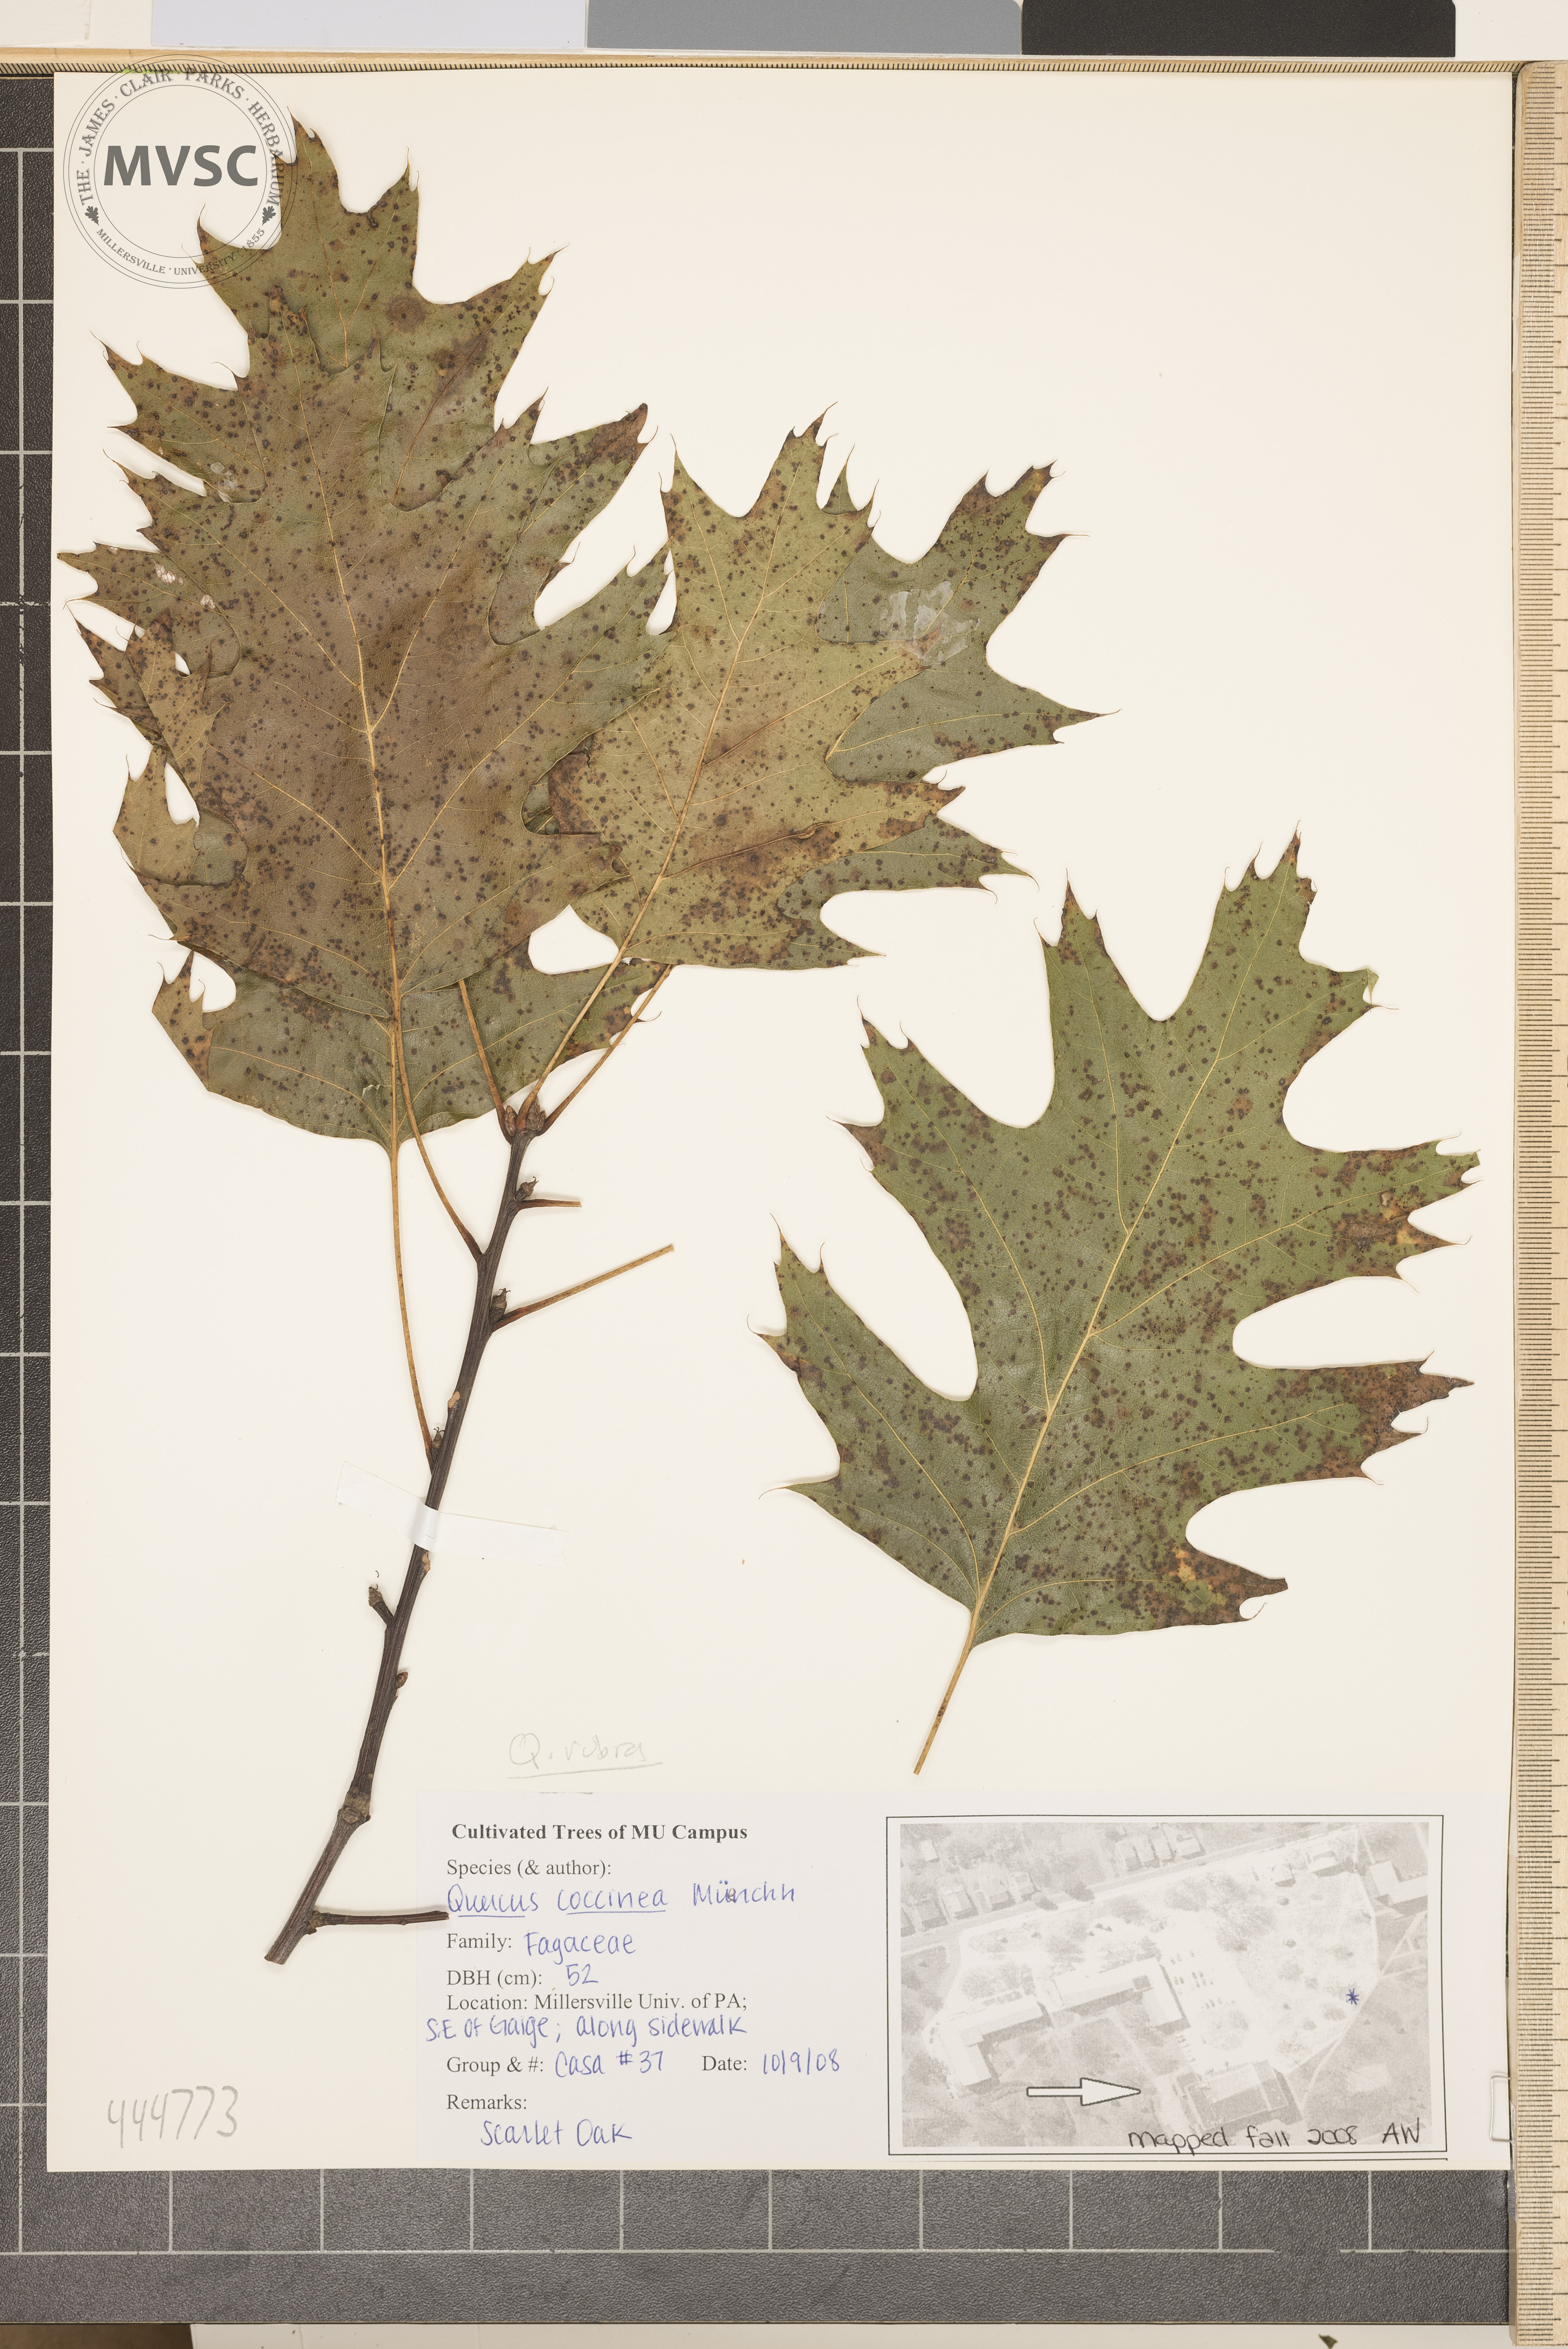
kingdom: Plantae
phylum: Tracheophyta
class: Magnoliopsida
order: Fagales
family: Fagaceae
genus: Quercus
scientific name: Quercus rubra
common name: Red oak
